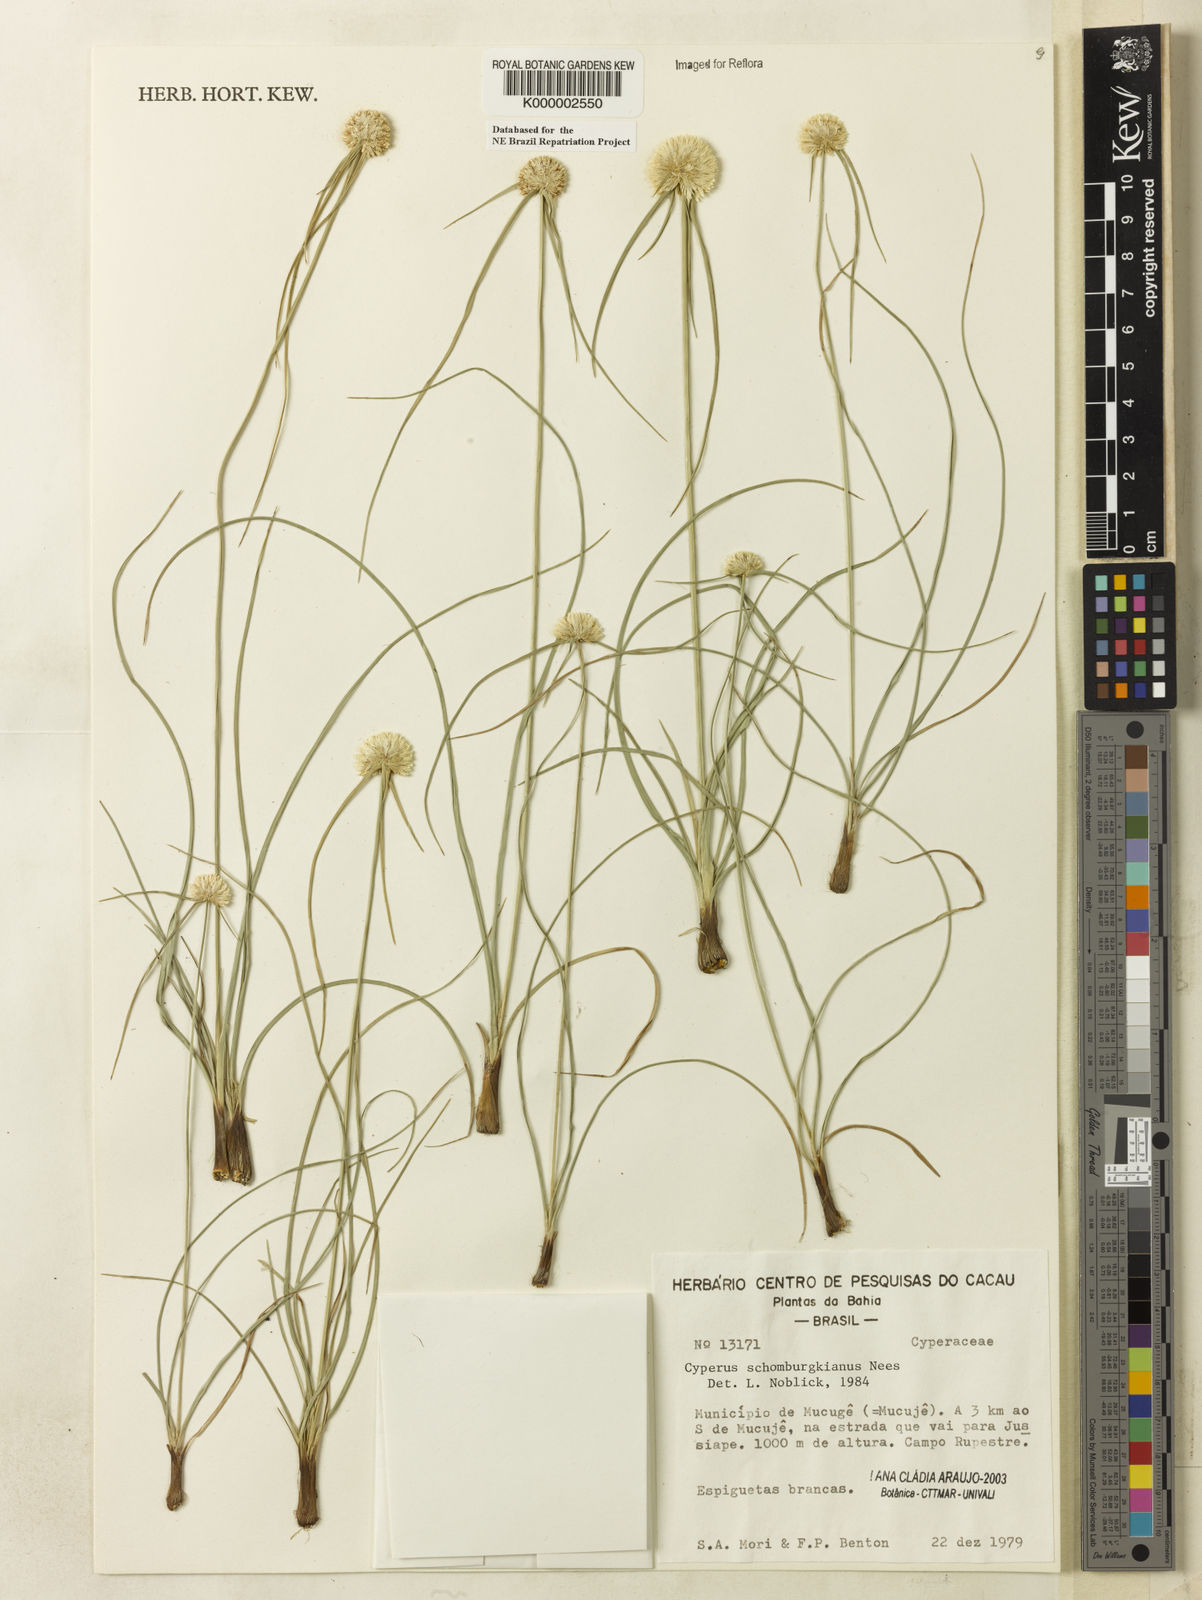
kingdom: Plantae
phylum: Tracheophyta
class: Liliopsida
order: Poales
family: Cyperaceae
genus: Cyperus
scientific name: Cyperus schomburgkianus
